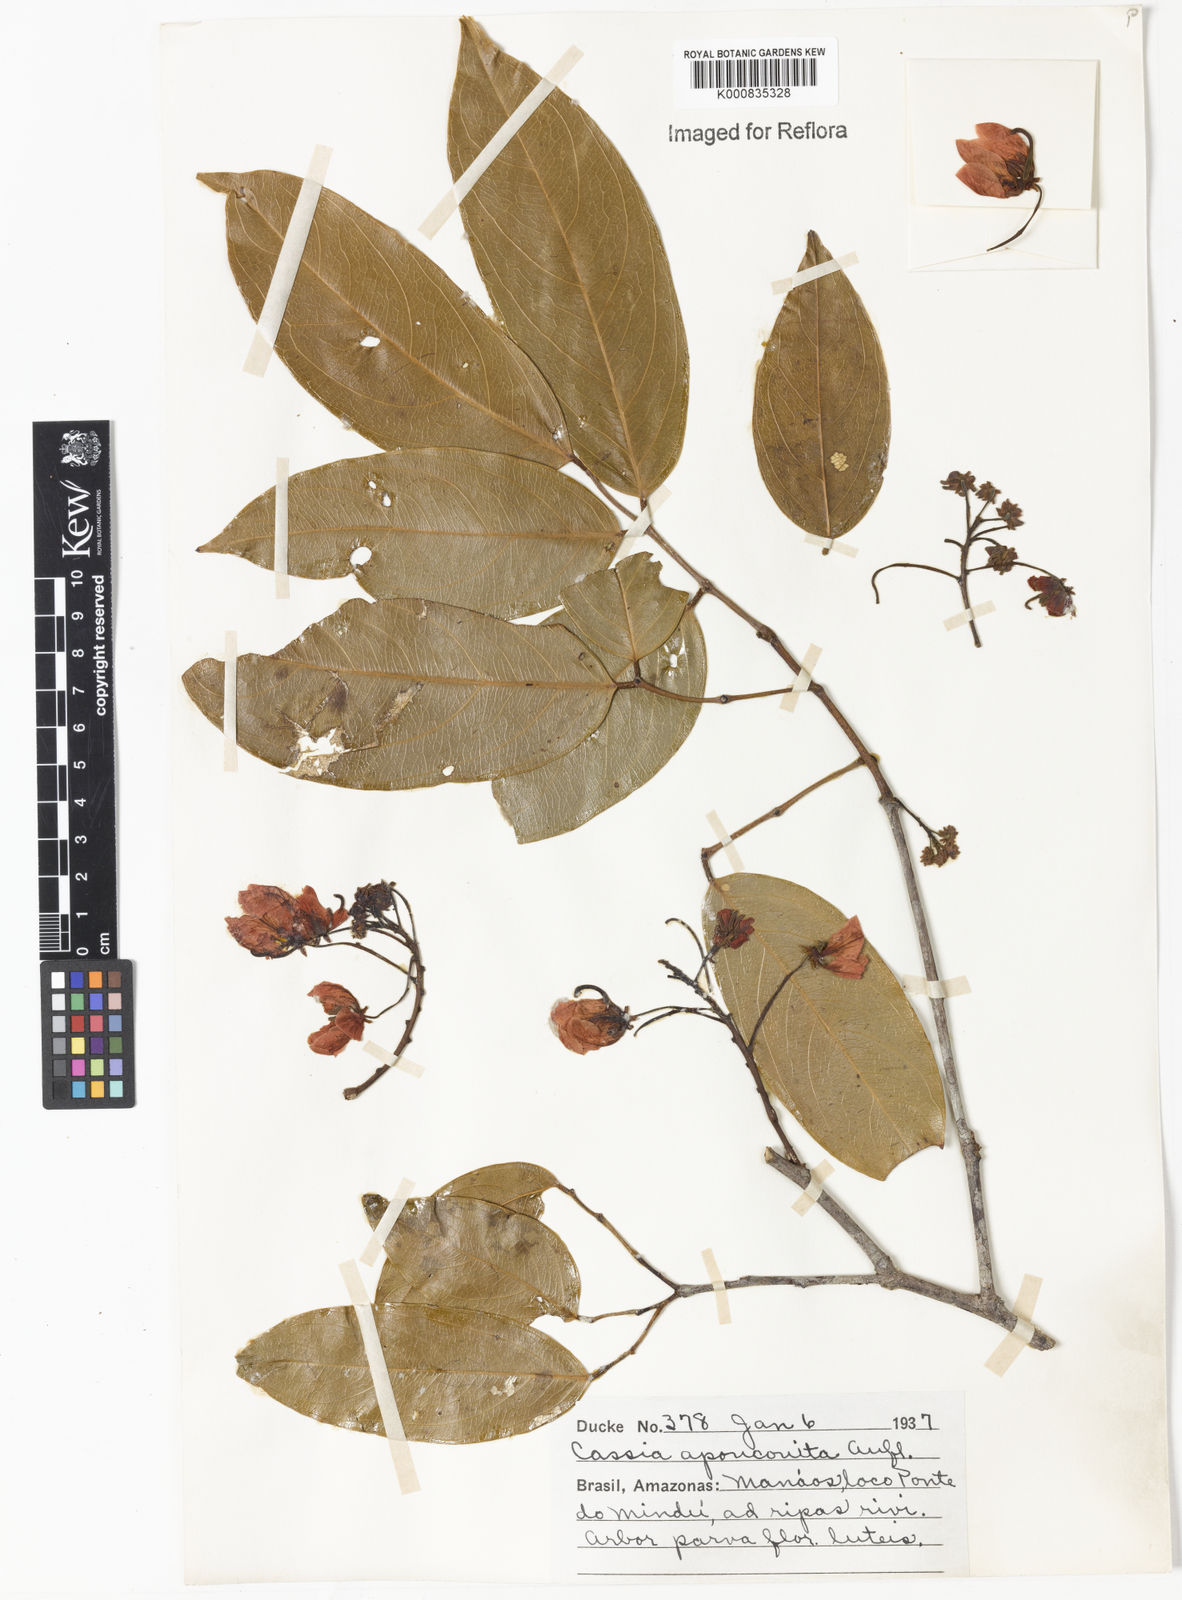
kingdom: Plantae
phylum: Tracheophyta
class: Magnoliopsida
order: Fabales
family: Fabaceae
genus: Chamaecrista
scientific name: Chamaecrista apoucouita
